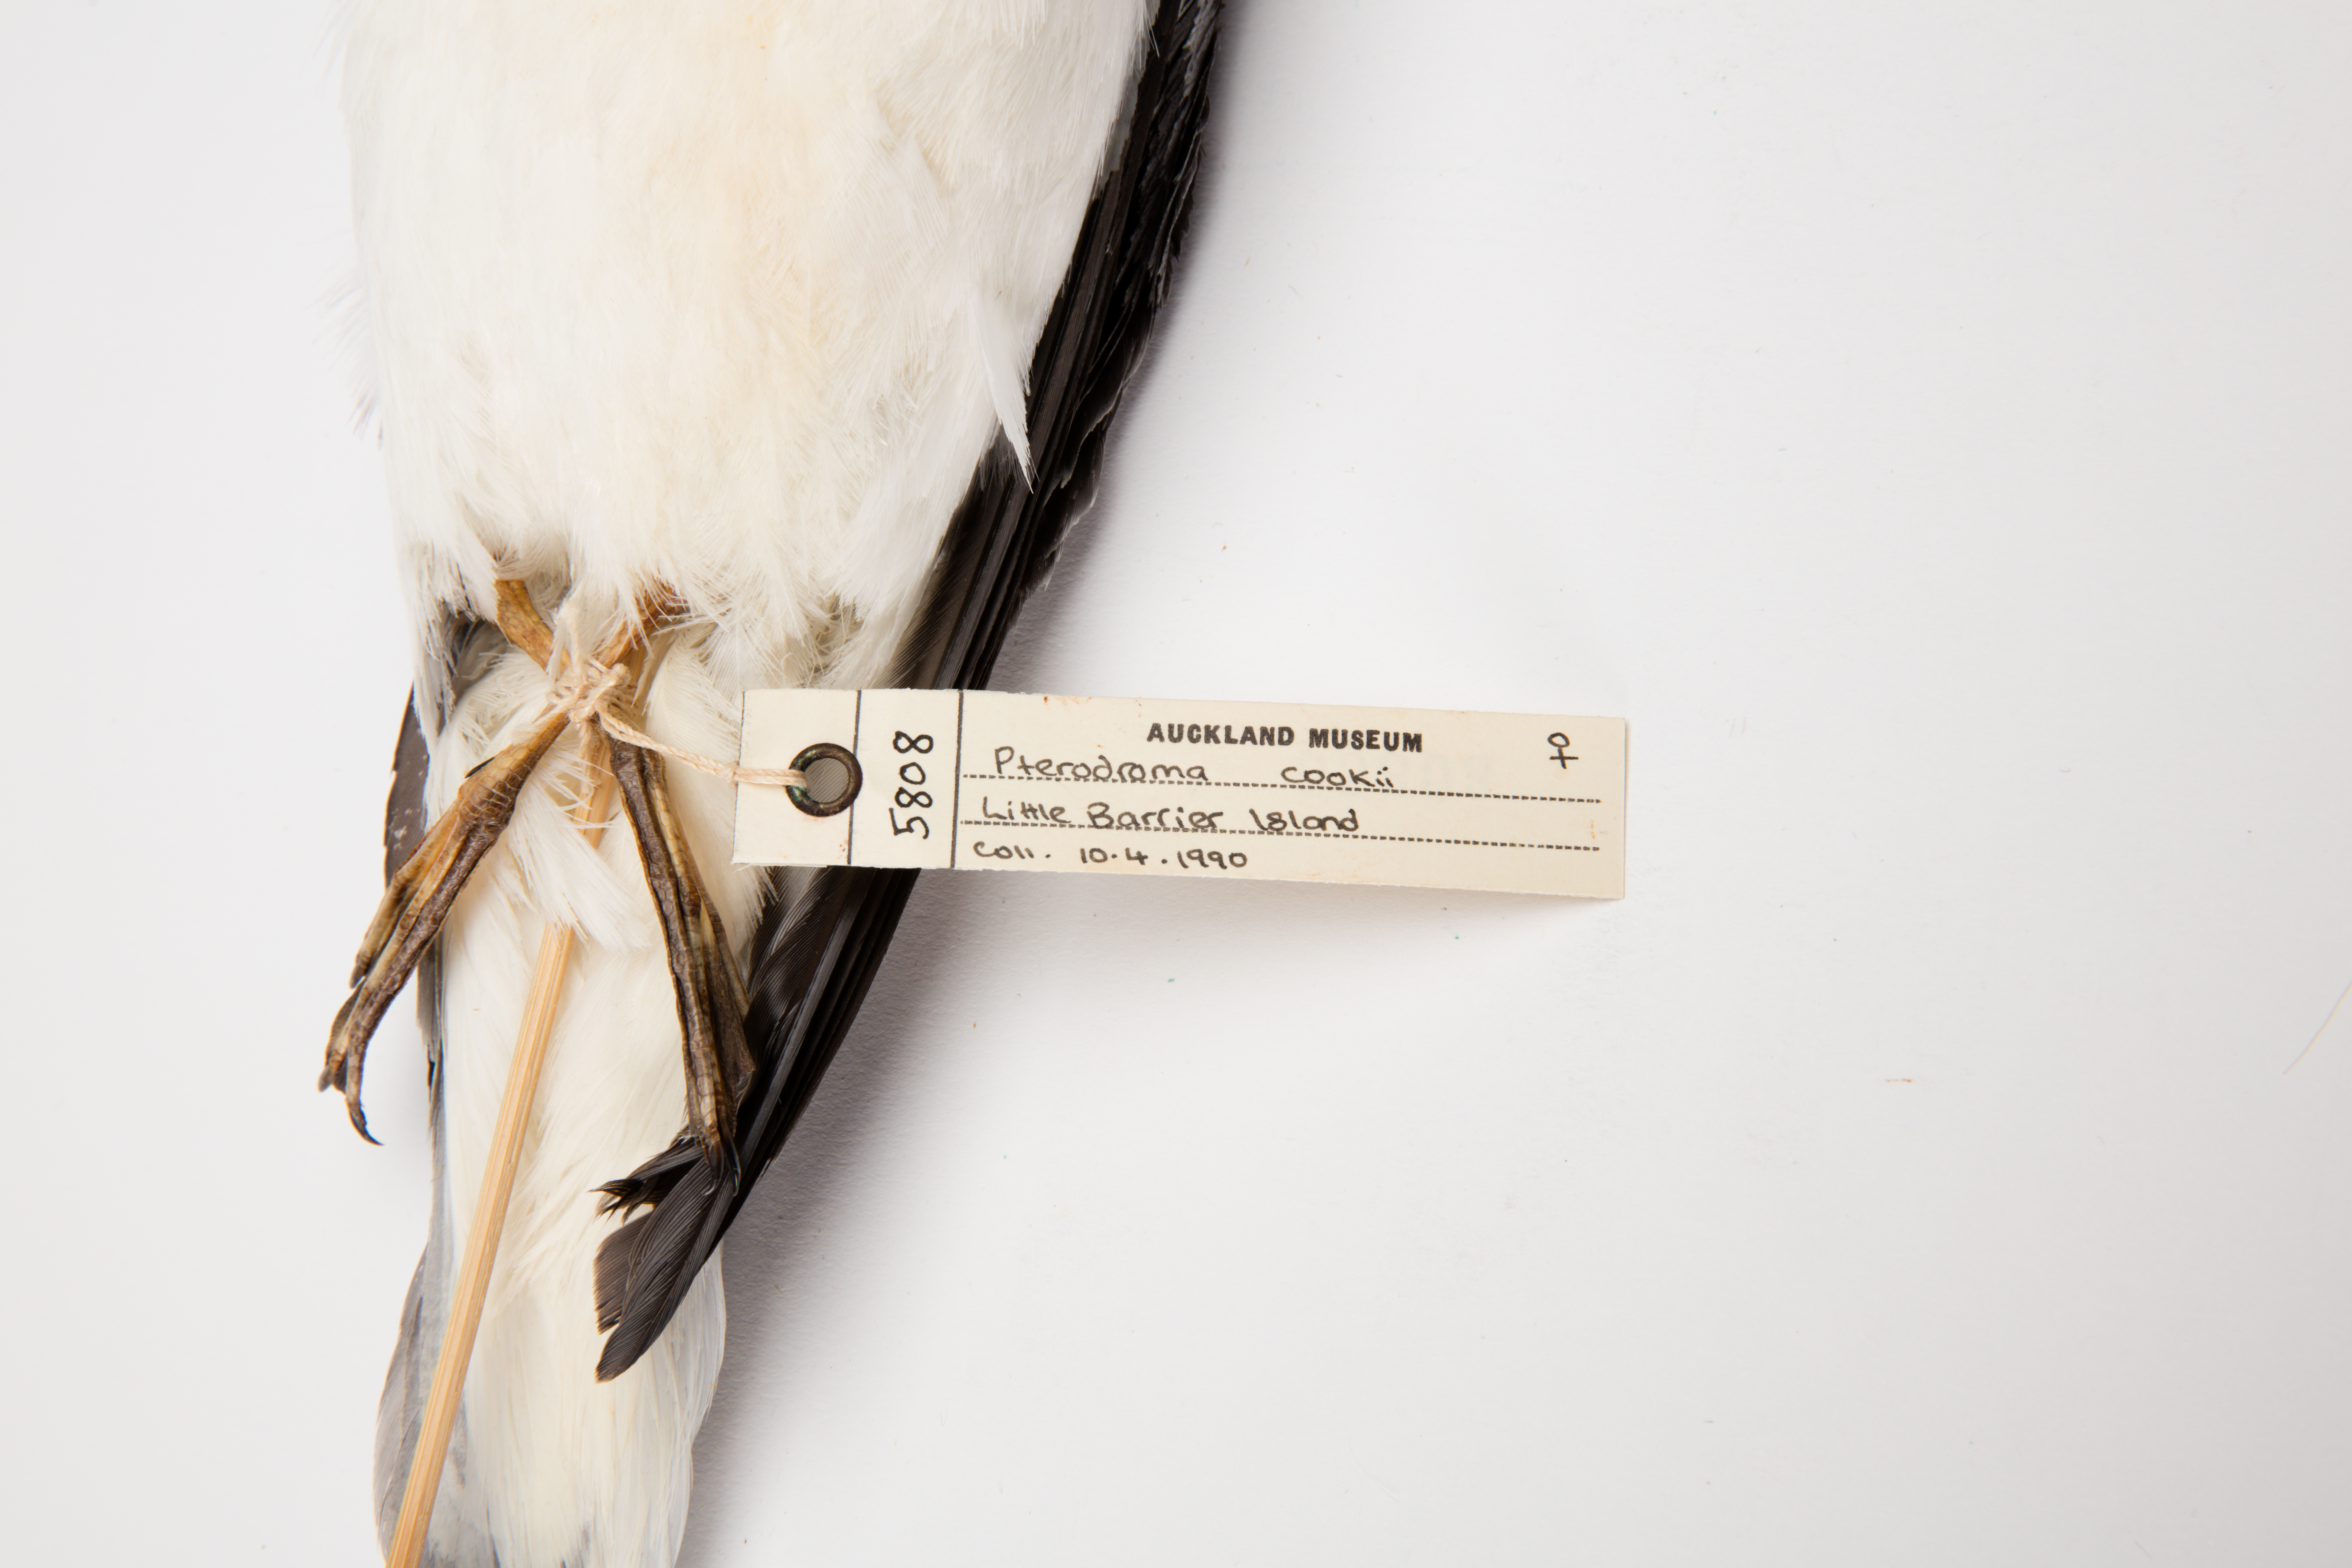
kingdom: Animalia
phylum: Chordata
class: Aves
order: Procellariiformes
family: Procellariidae
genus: Pterodroma
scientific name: Pterodroma cookii
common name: Cook's petrel
